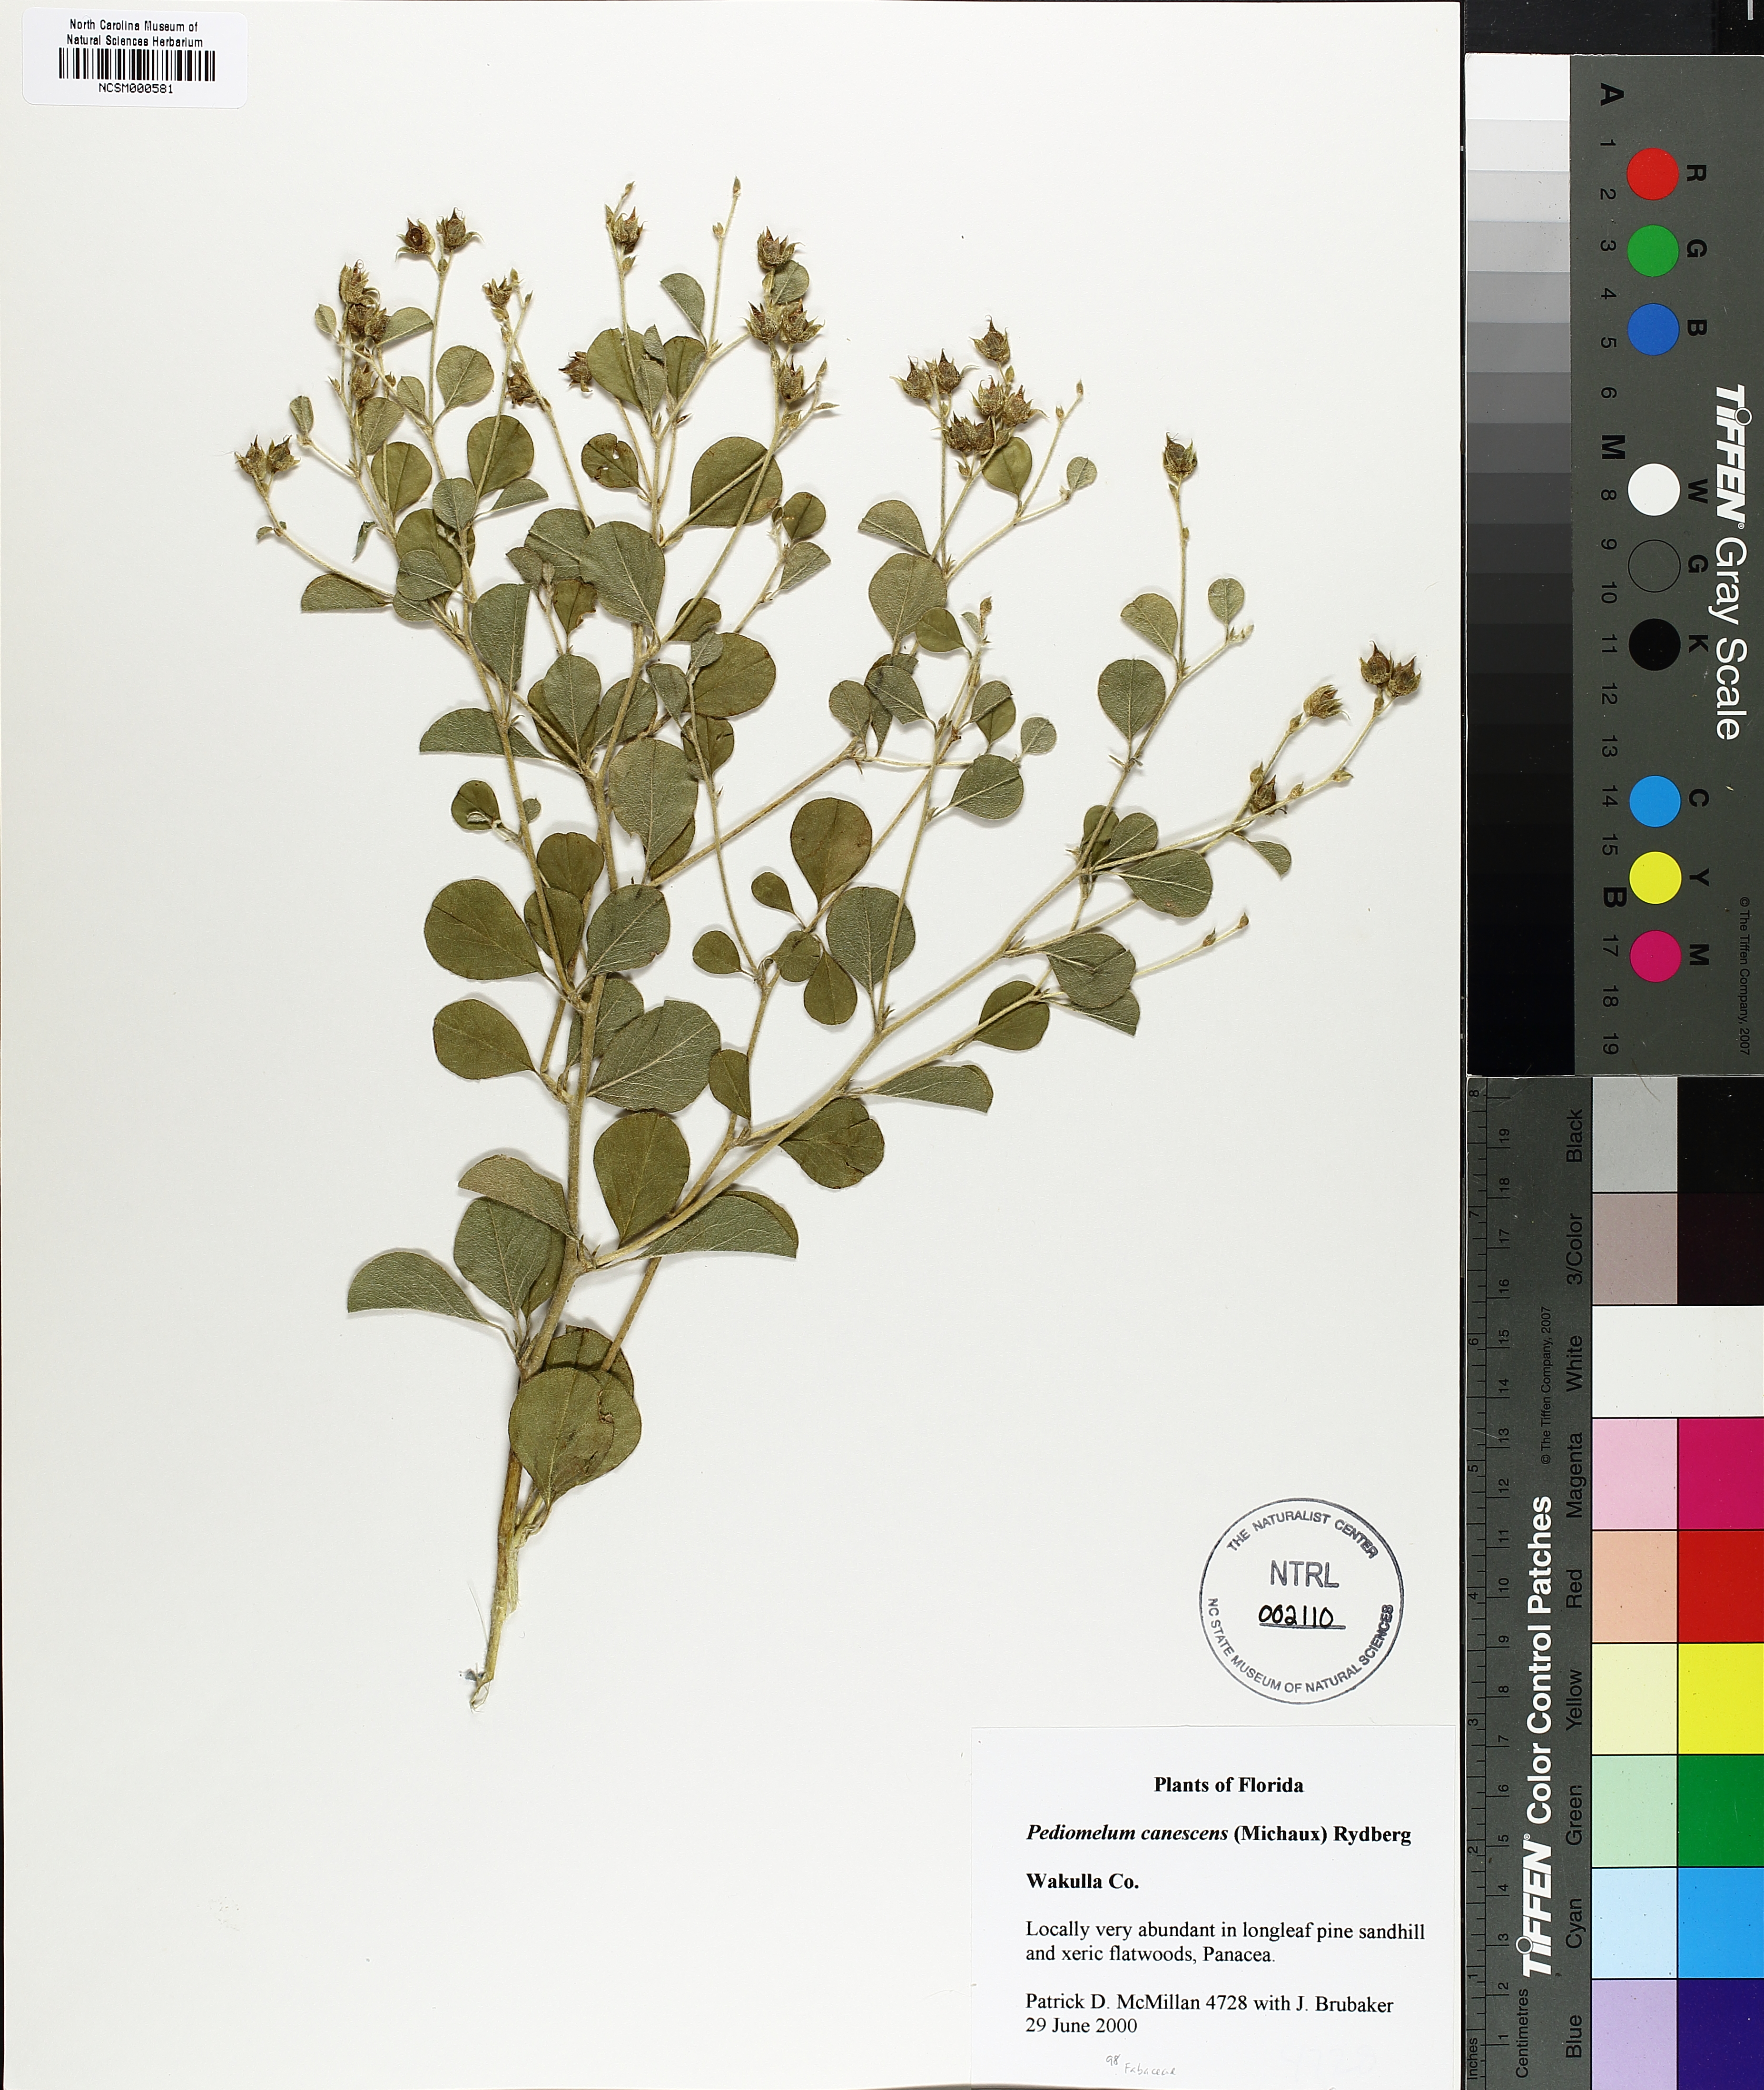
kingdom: Plantae
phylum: Tracheophyta
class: Magnoliopsida
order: Fabales
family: Fabaceae
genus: Pediomelum
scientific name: Pediomelum canescens
